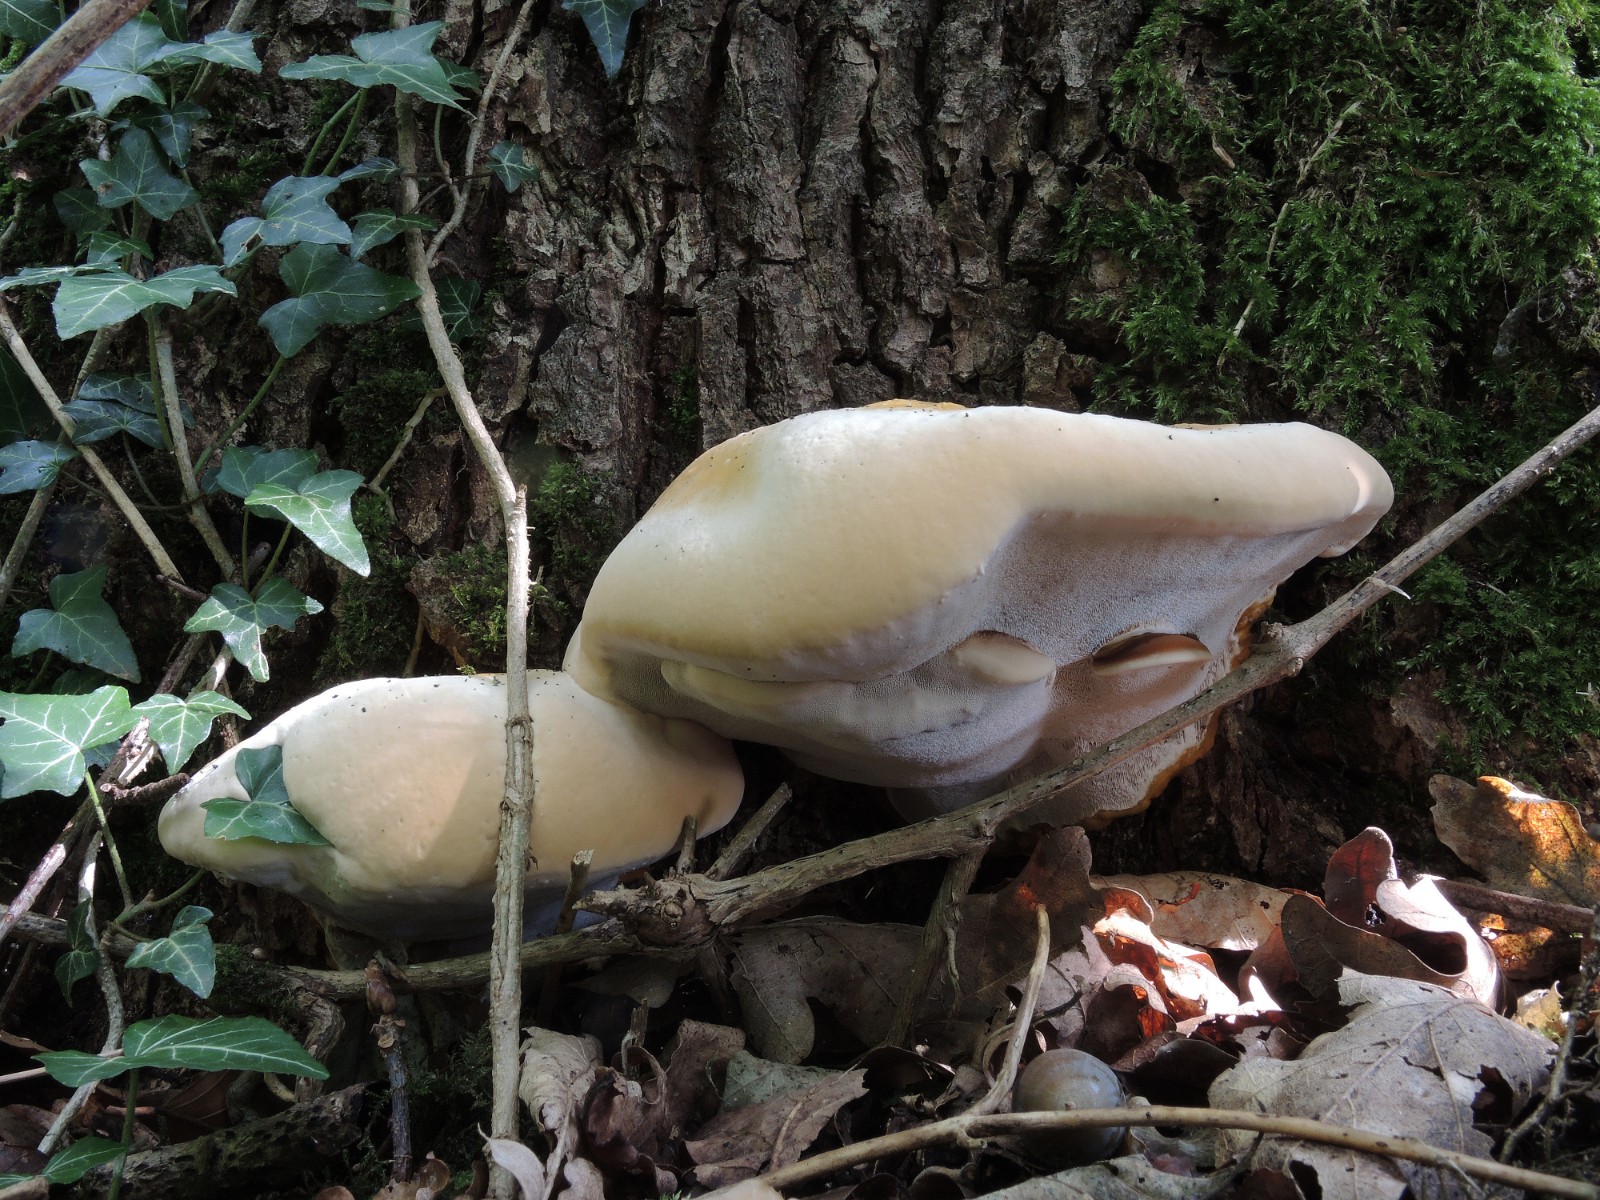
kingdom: Fungi
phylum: Basidiomycota
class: Agaricomycetes
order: Polyporales
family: Polyporaceae
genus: Ganoderma
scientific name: Ganoderma resinaceum
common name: gyldenbrun lakporesvamp
